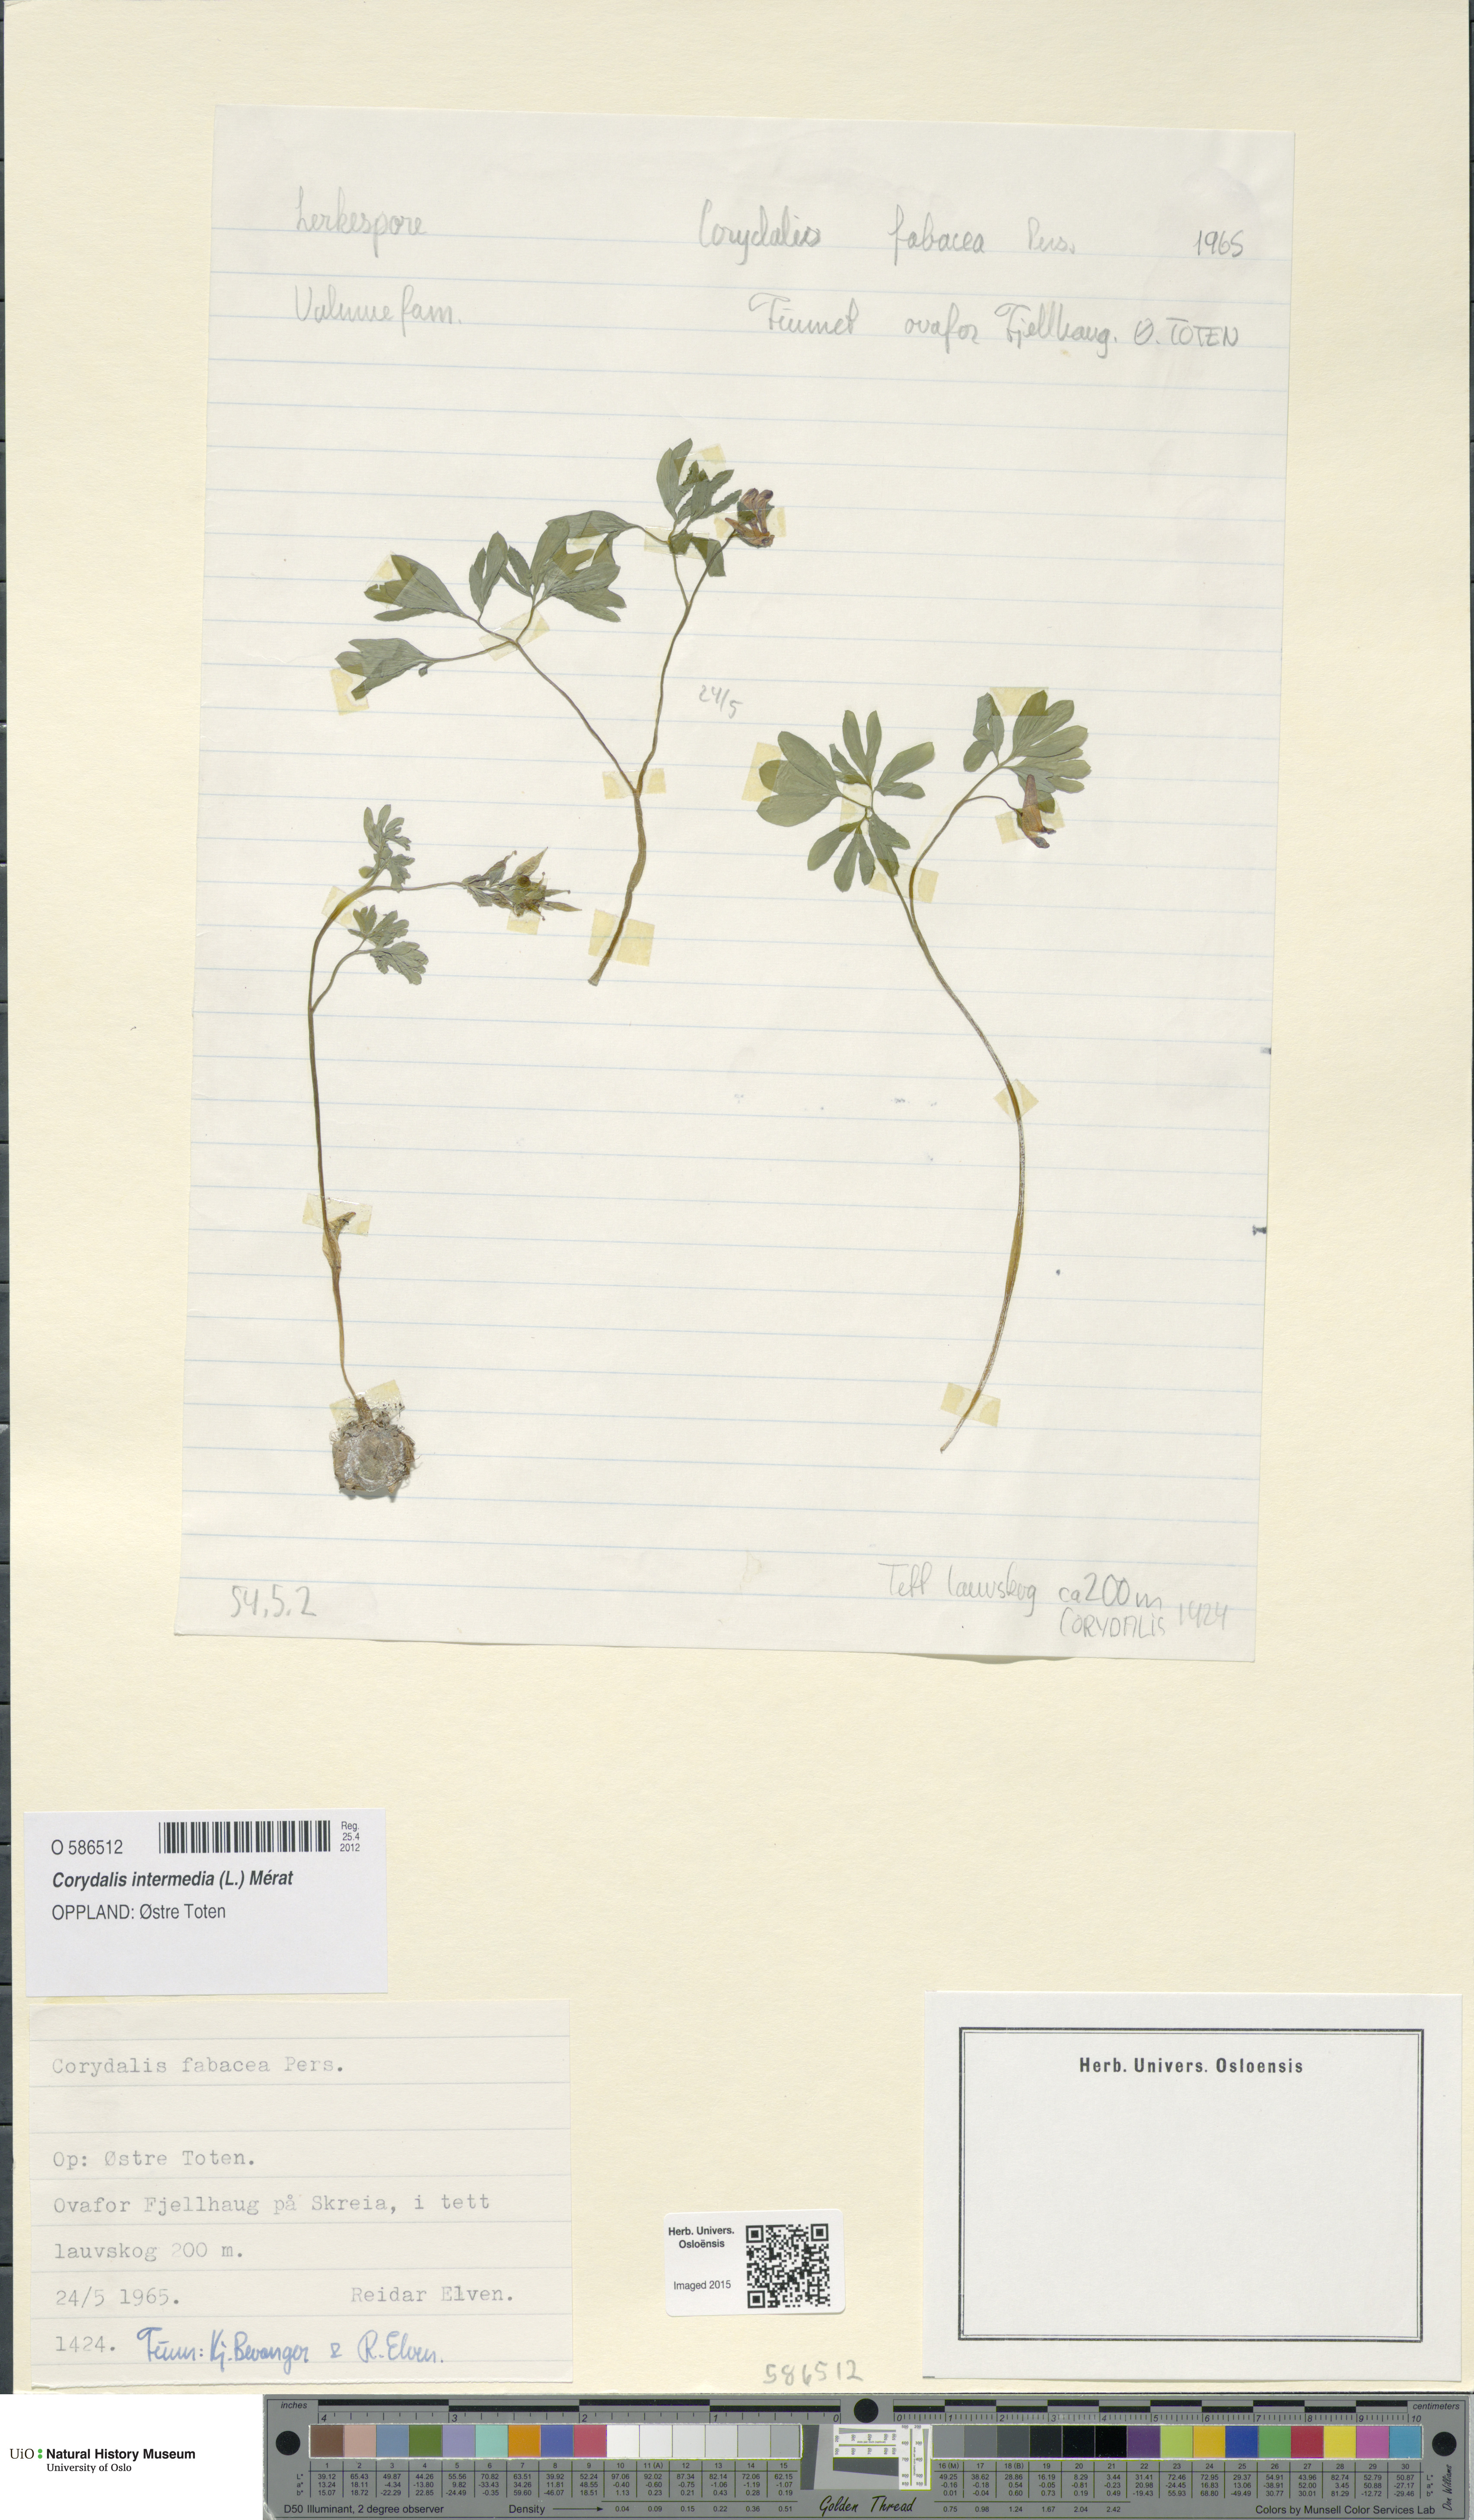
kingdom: Plantae
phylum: Tracheophyta
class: Magnoliopsida
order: Ranunculales
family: Papaveraceae
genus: Corydalis
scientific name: Corydalis intermedia
